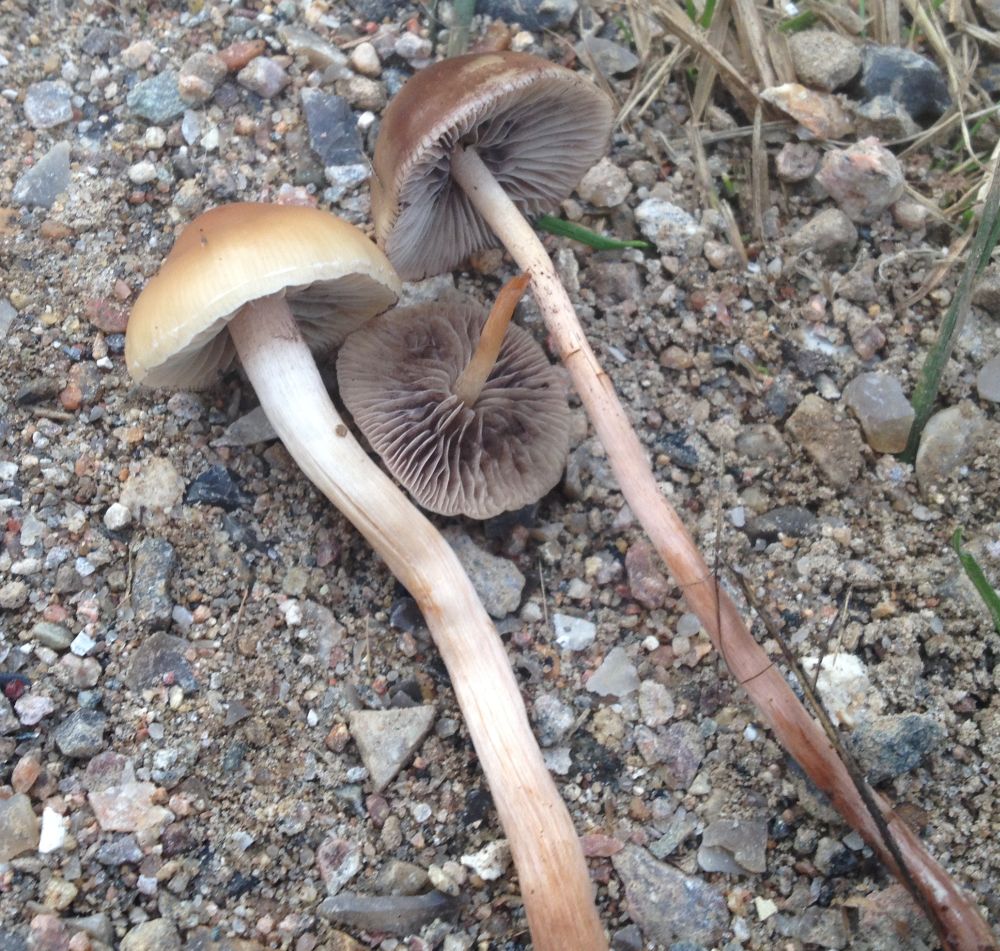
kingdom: Fungi
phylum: Basidiomycota
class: Agaricomycetes
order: Agaricales
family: Strophariaceae
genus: Hypholoma
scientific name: Hypholoma subericaeum
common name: eng-svovlhat
